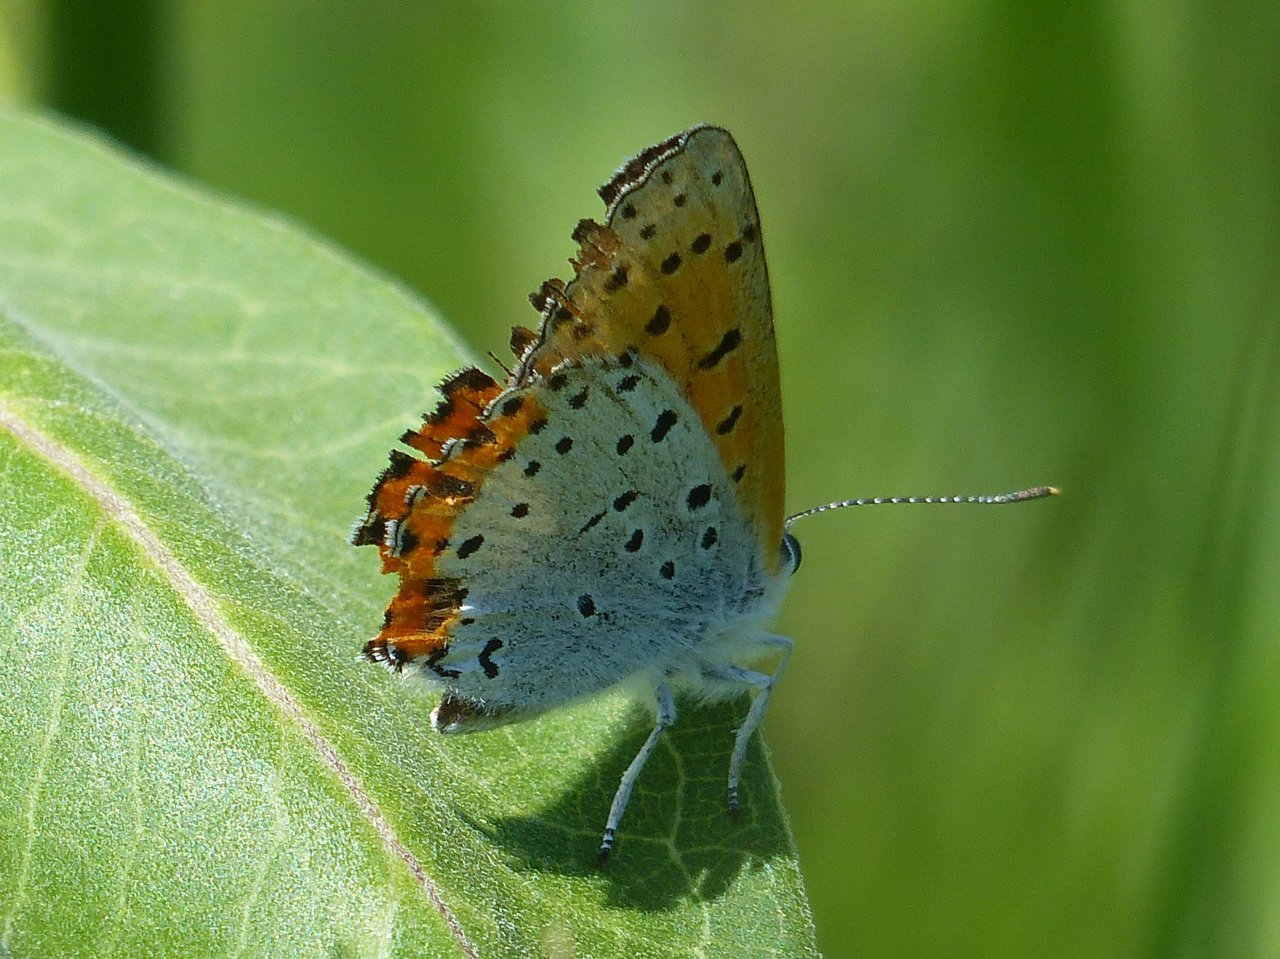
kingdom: Animalia
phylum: Arthropoda
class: Insecta
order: Lepidoptera
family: Sesiidae
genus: Sesia
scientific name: Sesia Lycaena hyllus
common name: Bronze Copper
